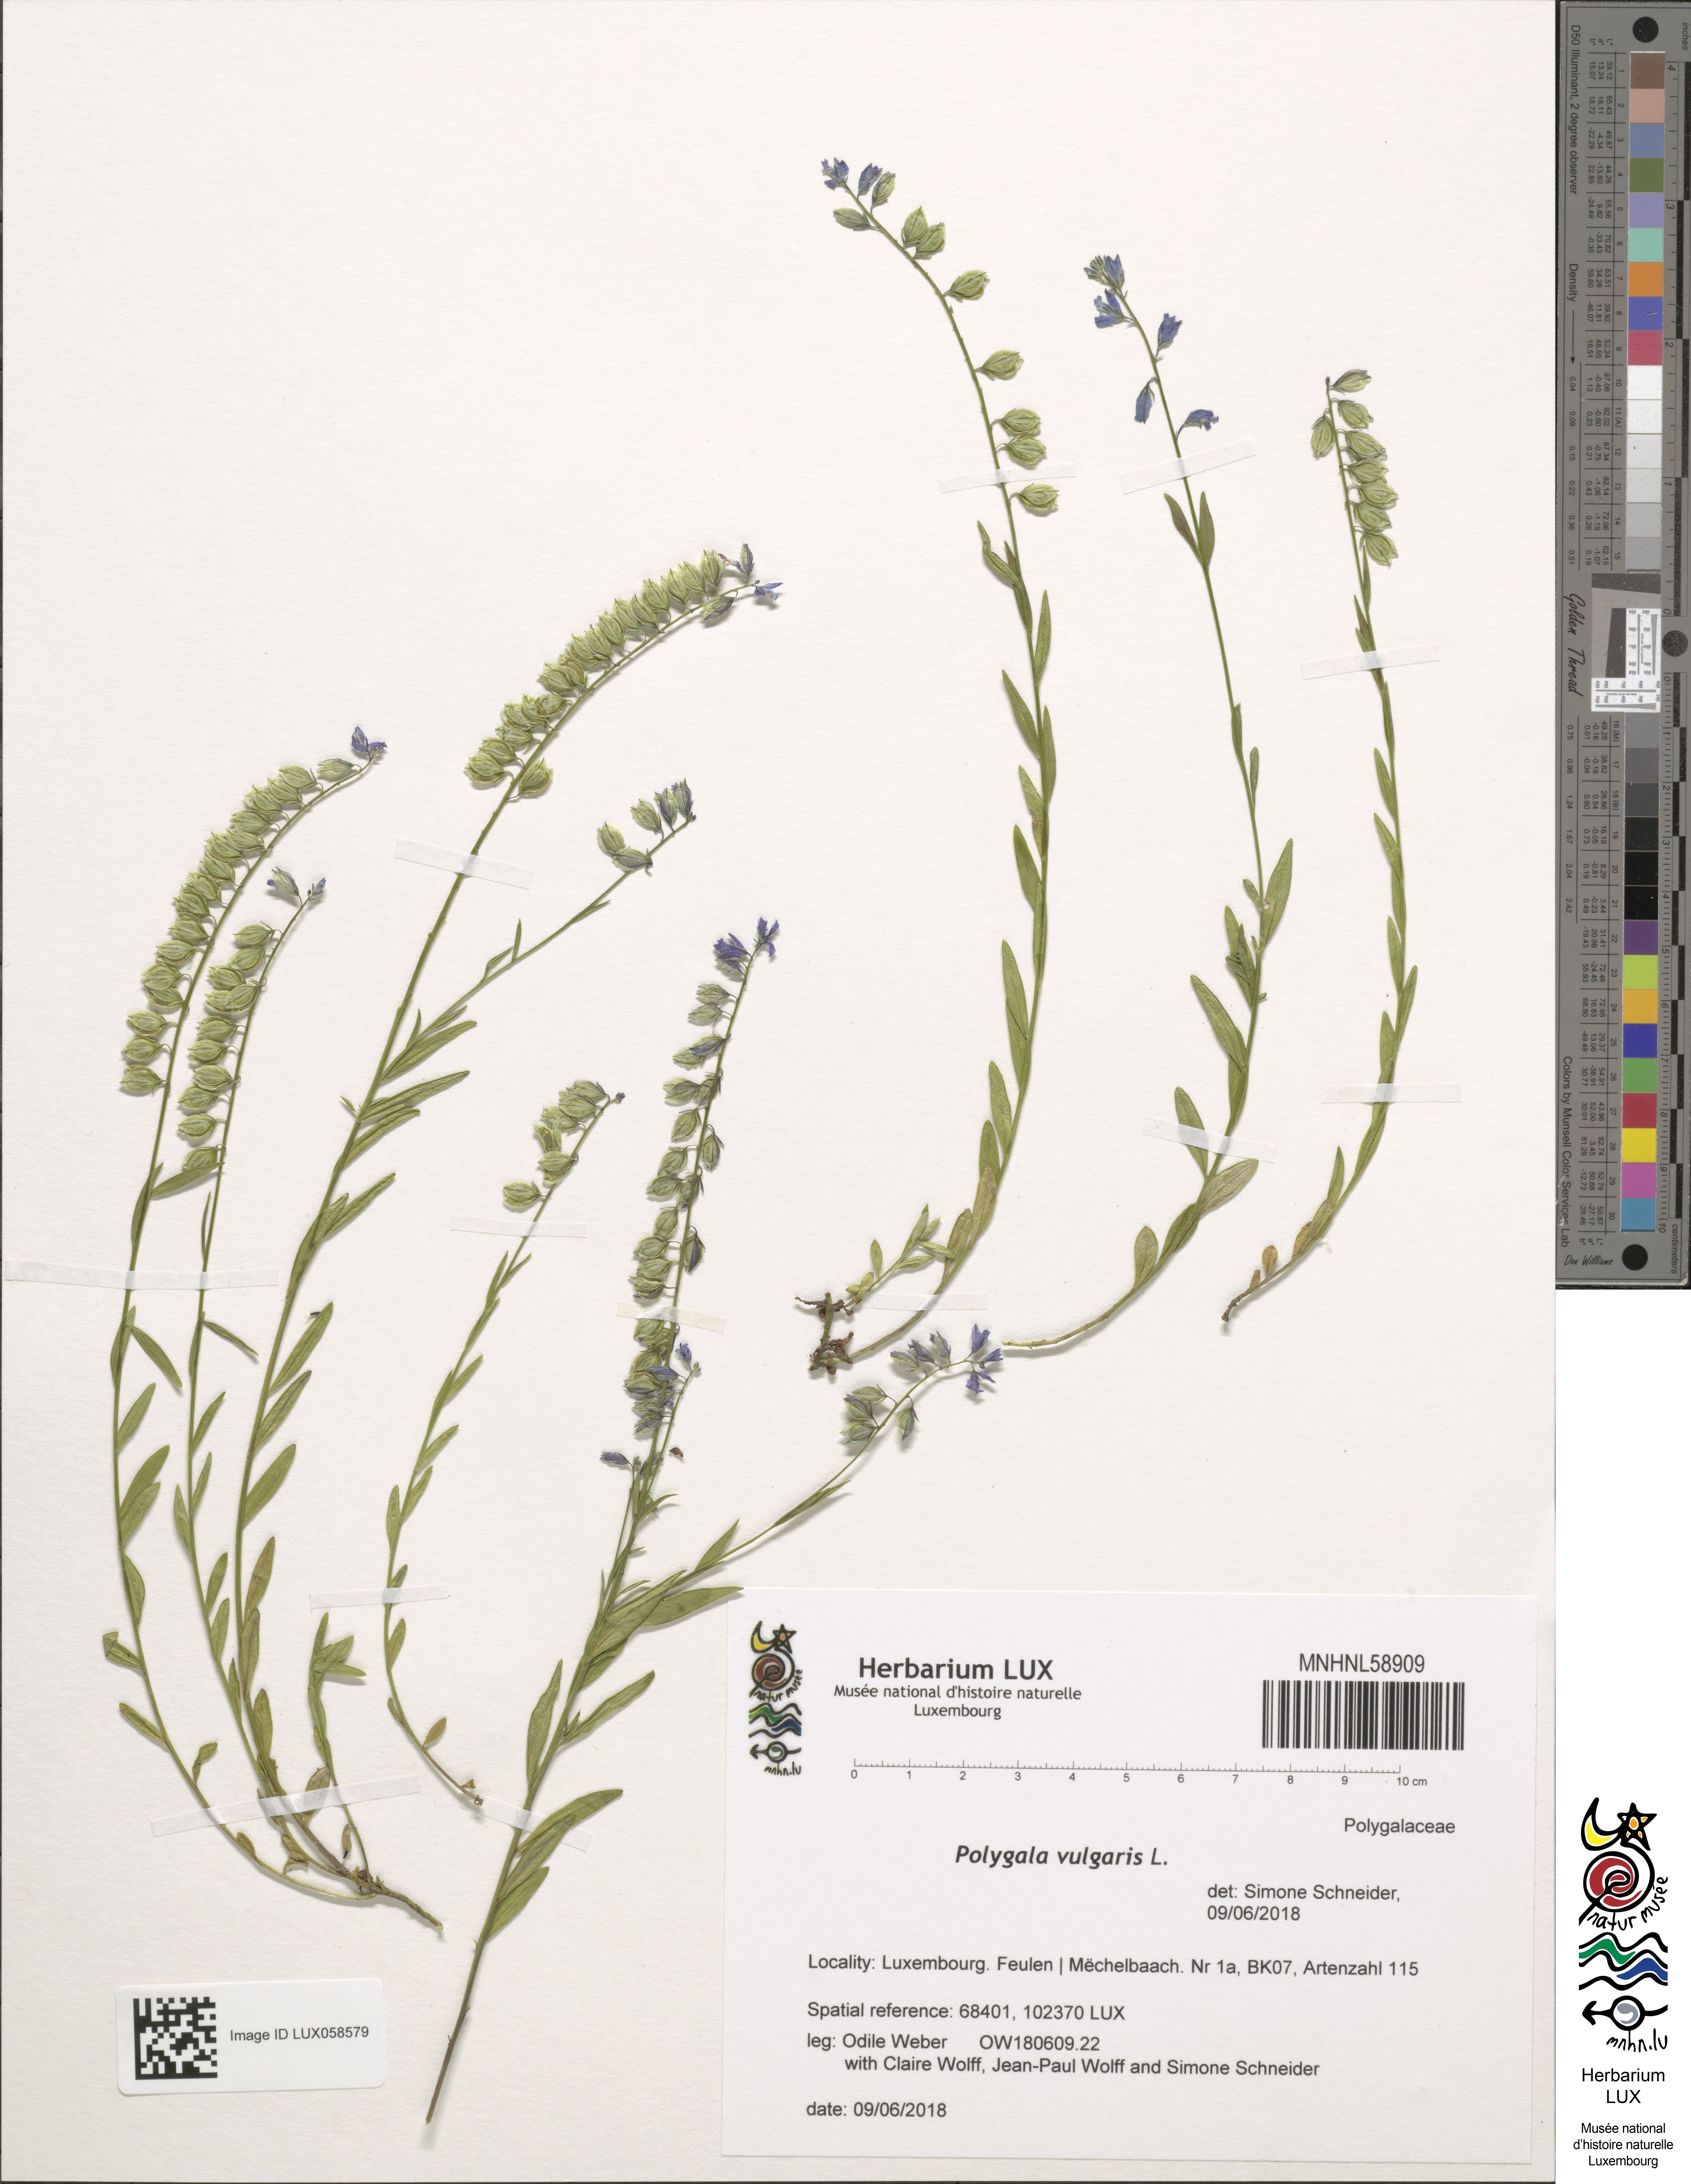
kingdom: Plantae
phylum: Tracheophyta
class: Magnoliopsida
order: Fabales
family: Polygalaceae
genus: Polygala
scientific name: Polygala vulgaris
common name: Common milkwort
